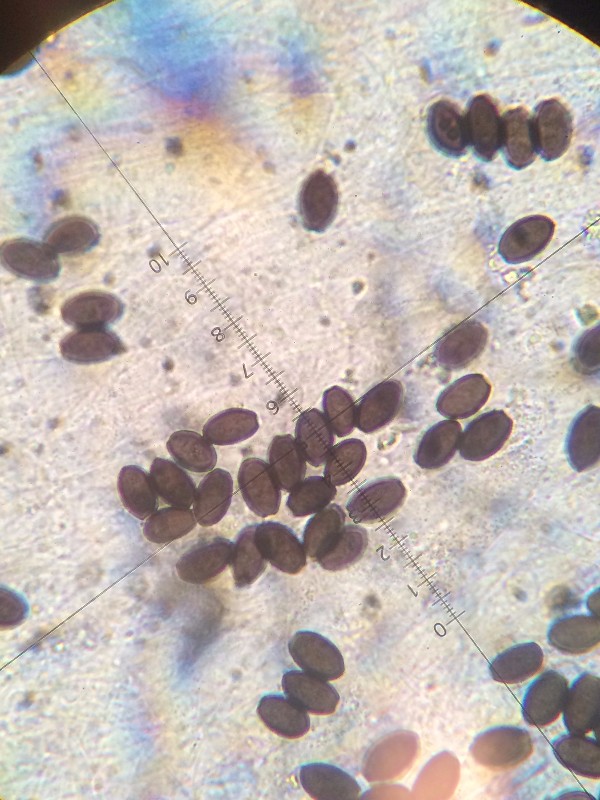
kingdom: Fungi
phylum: Basidiomycota
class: Agaricomycetes
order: Agaricales
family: Psathyrellaceae
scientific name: Psathyrellaceae
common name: mørkhatfamilien
